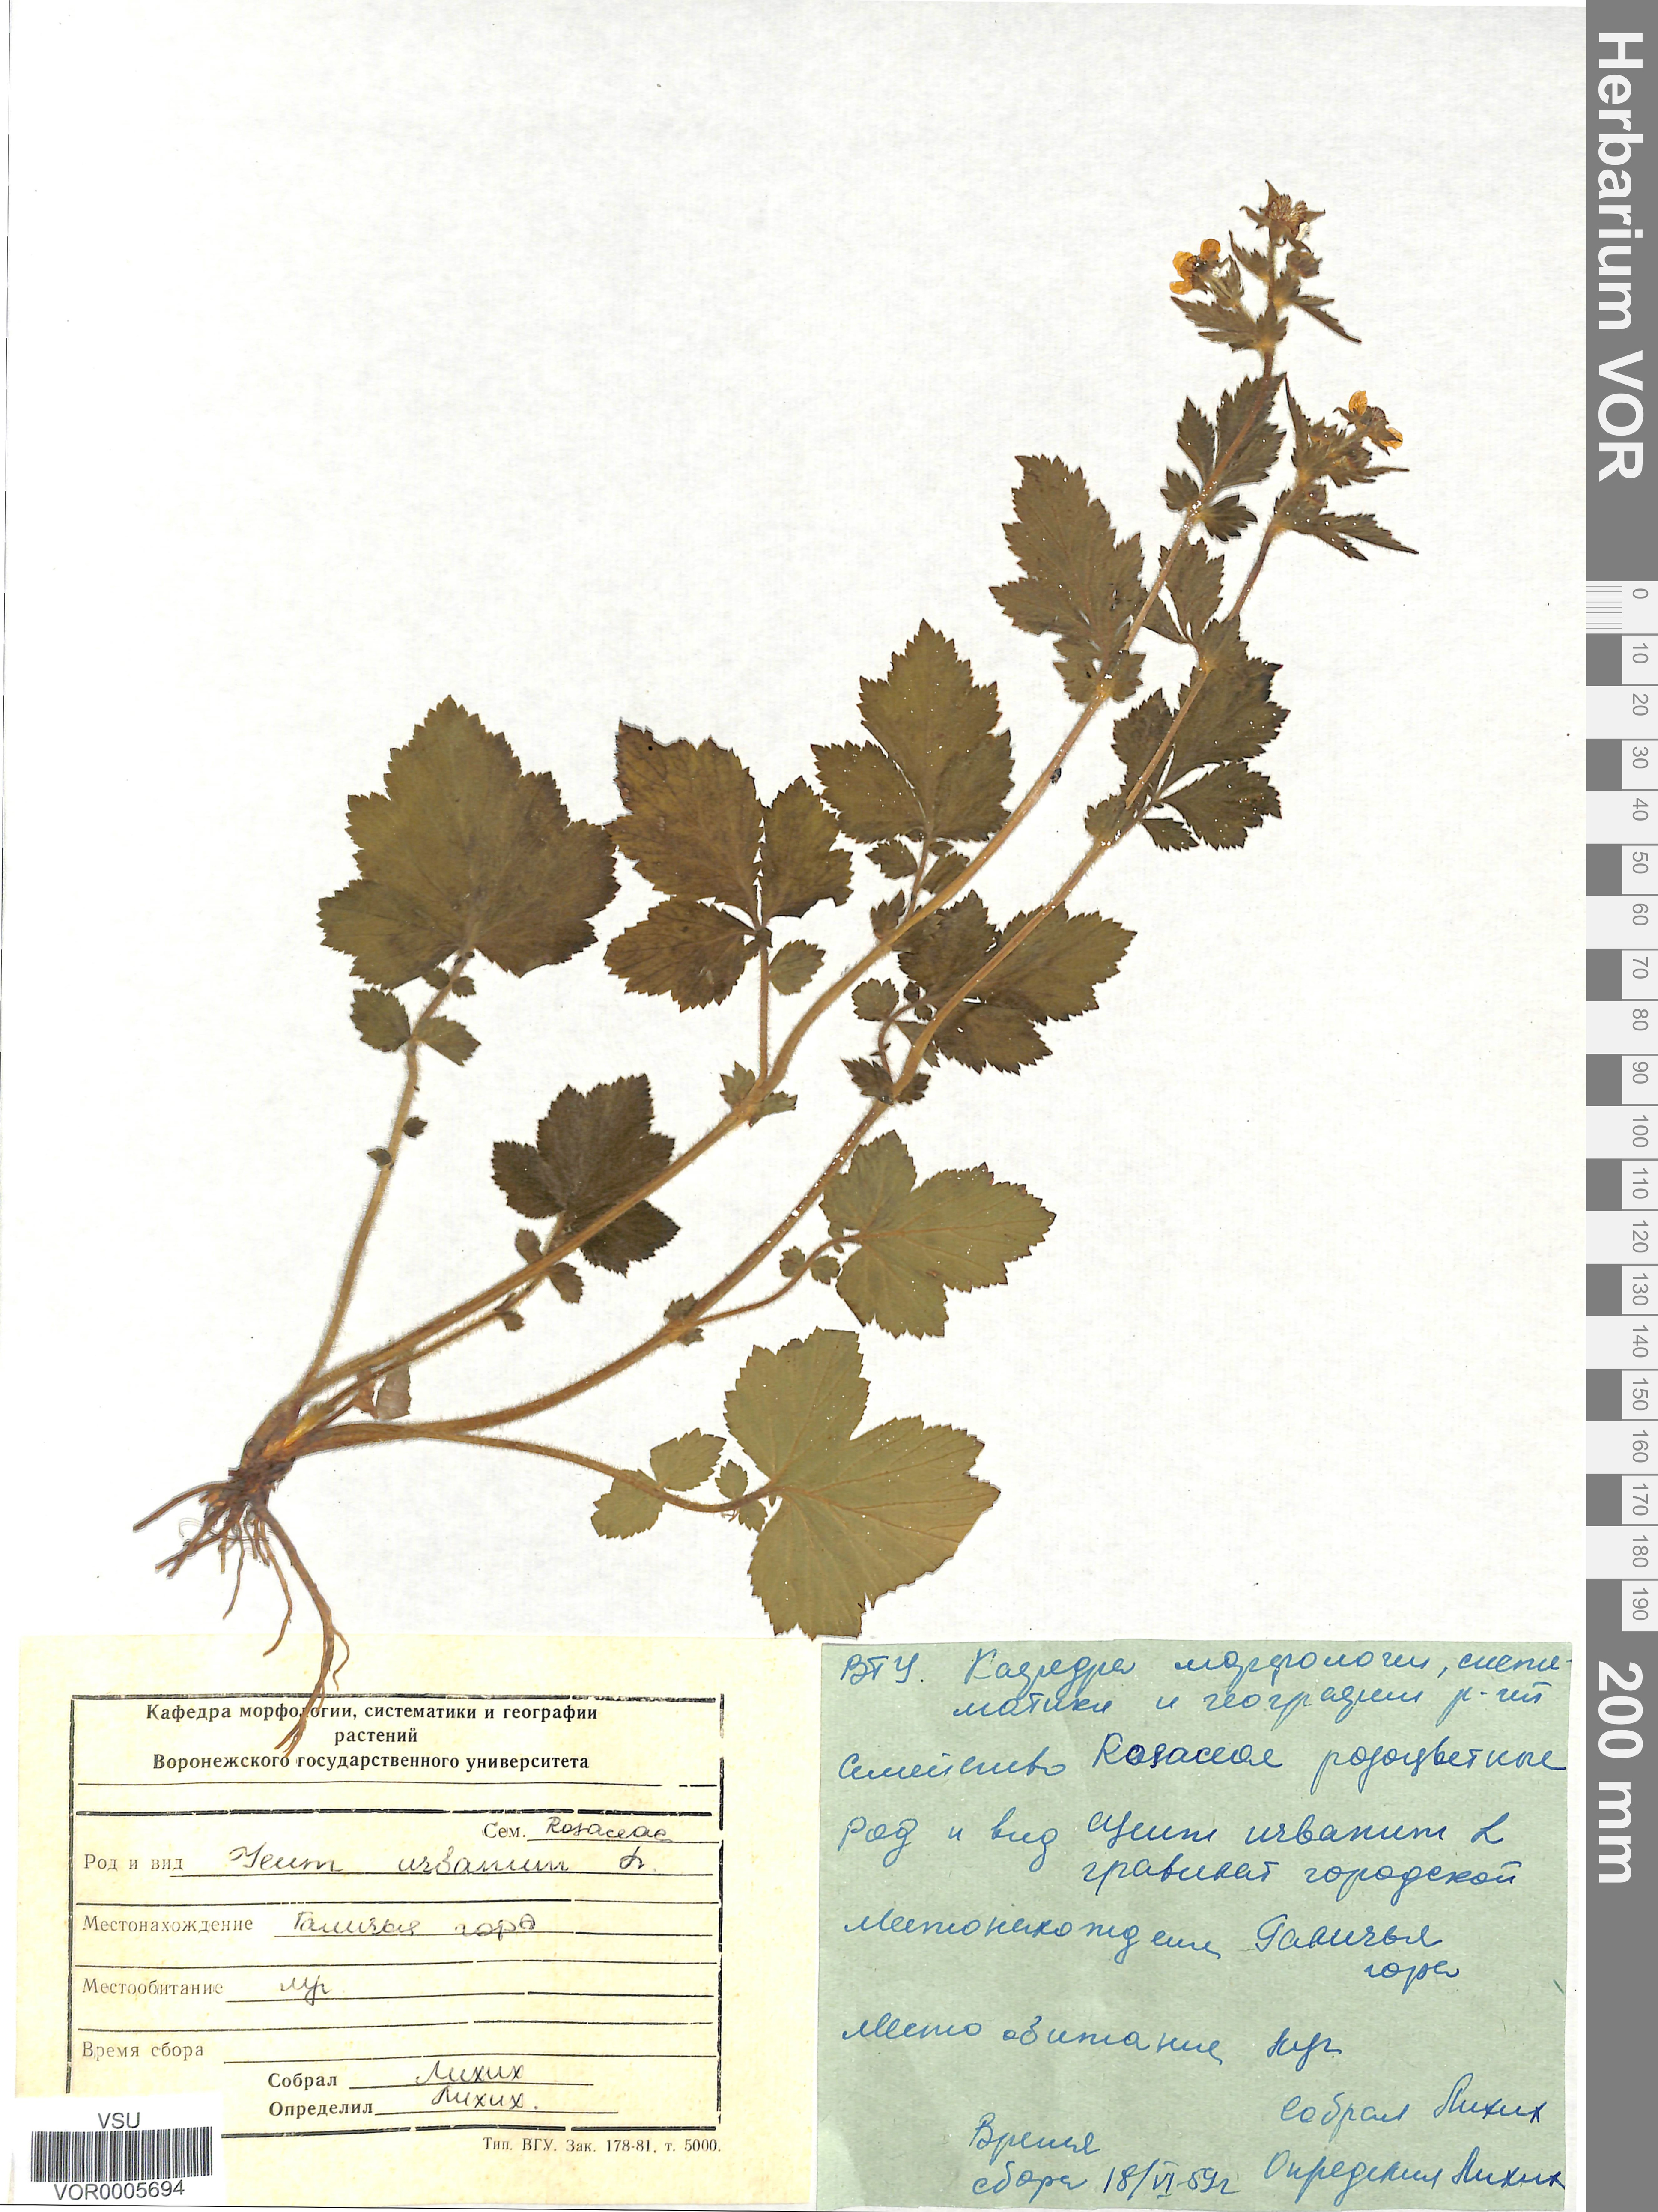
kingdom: Plantae
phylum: Tracheophyta
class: Magnoliopsida
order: Rosales
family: Rosaceae
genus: Geum
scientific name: Geum urbanum
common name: Wood avens
